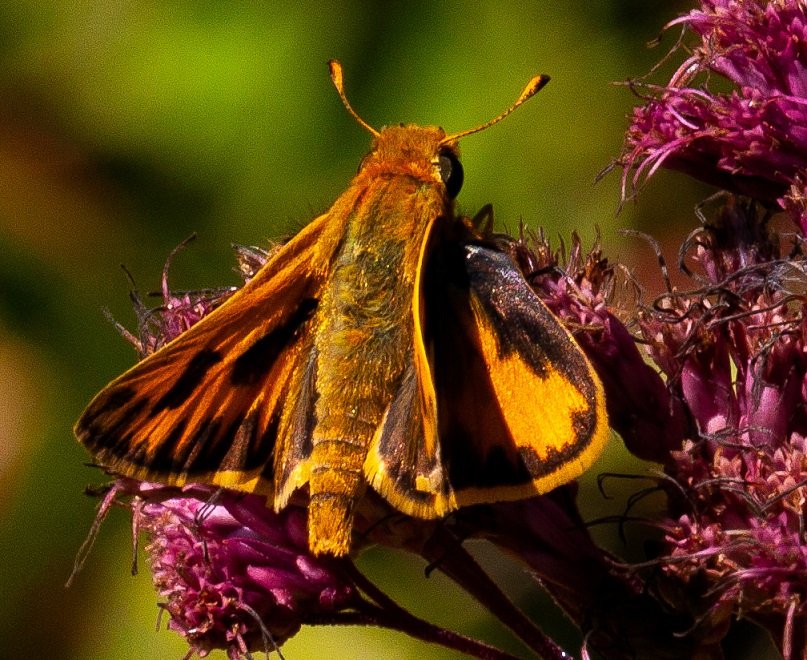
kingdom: Animalia
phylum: Arthropoda
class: Insecta
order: Lepidoptera
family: Hesperiidae
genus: Hylephila
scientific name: Hylephila phyleus
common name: Fiery Skipper
